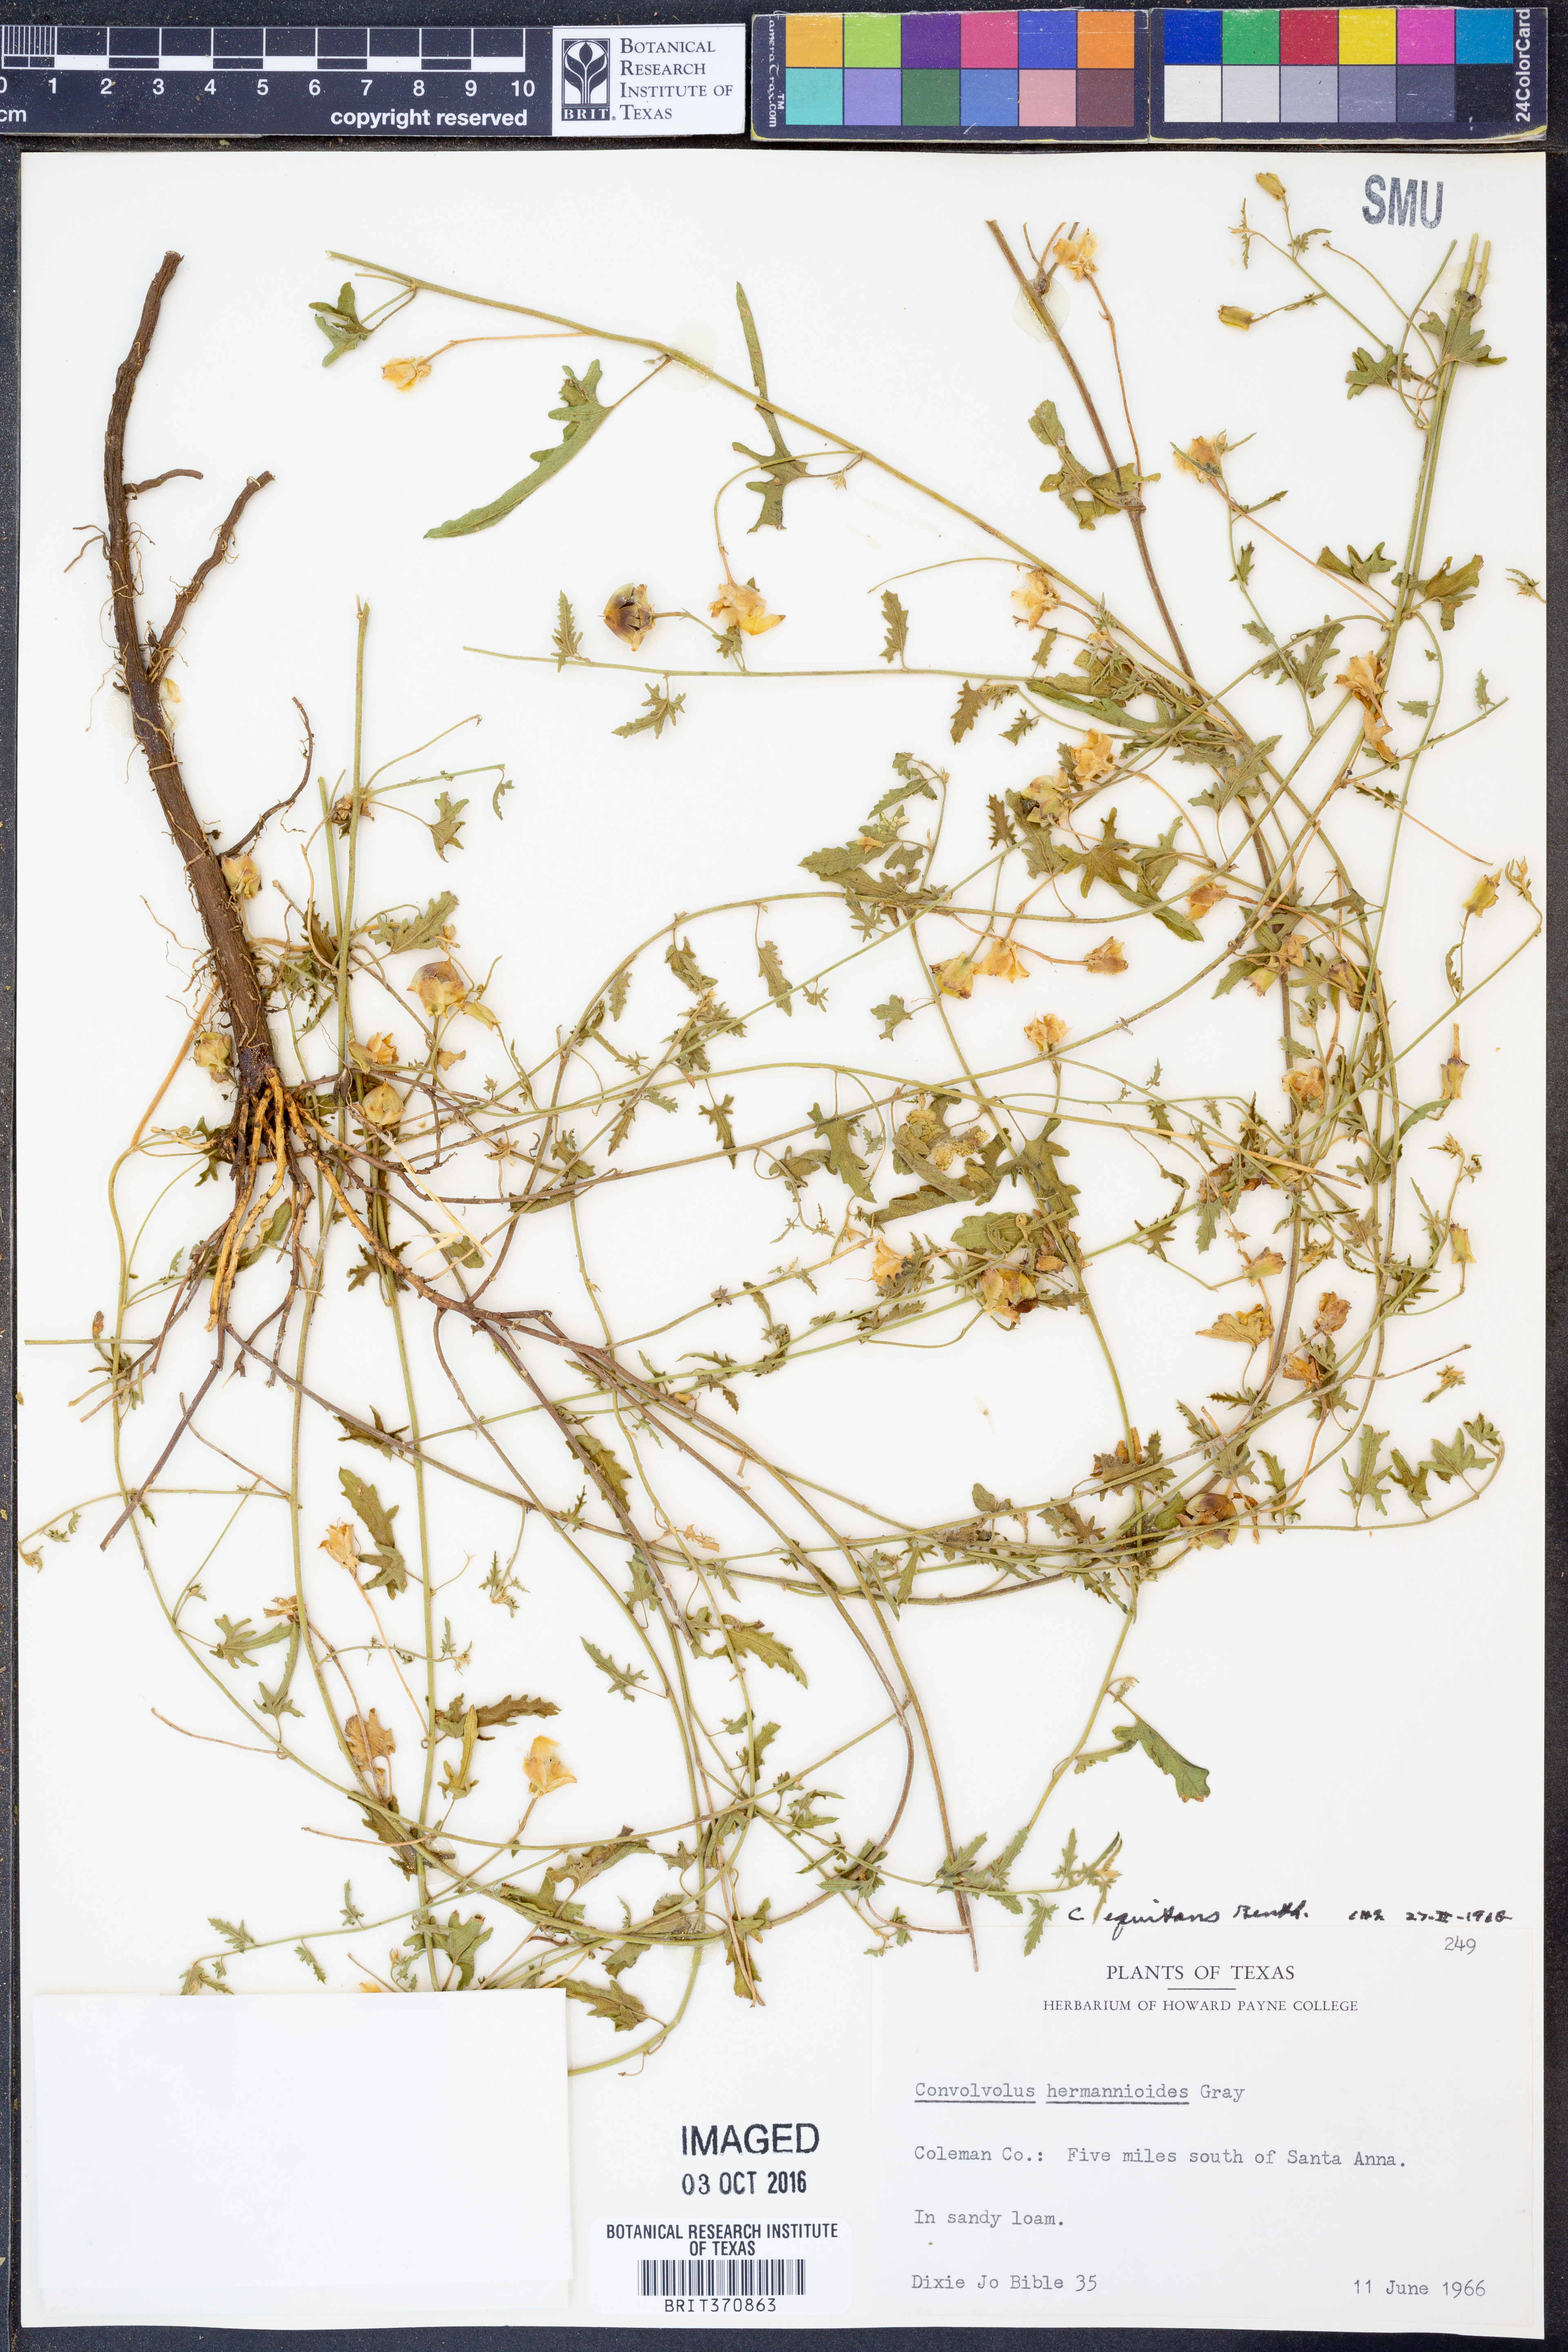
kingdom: Plantae
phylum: Tracheophyta
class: Magnoliopsida
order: Solanales
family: Convolvulaceae
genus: Convolvulus
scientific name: Convolvulus equitans
